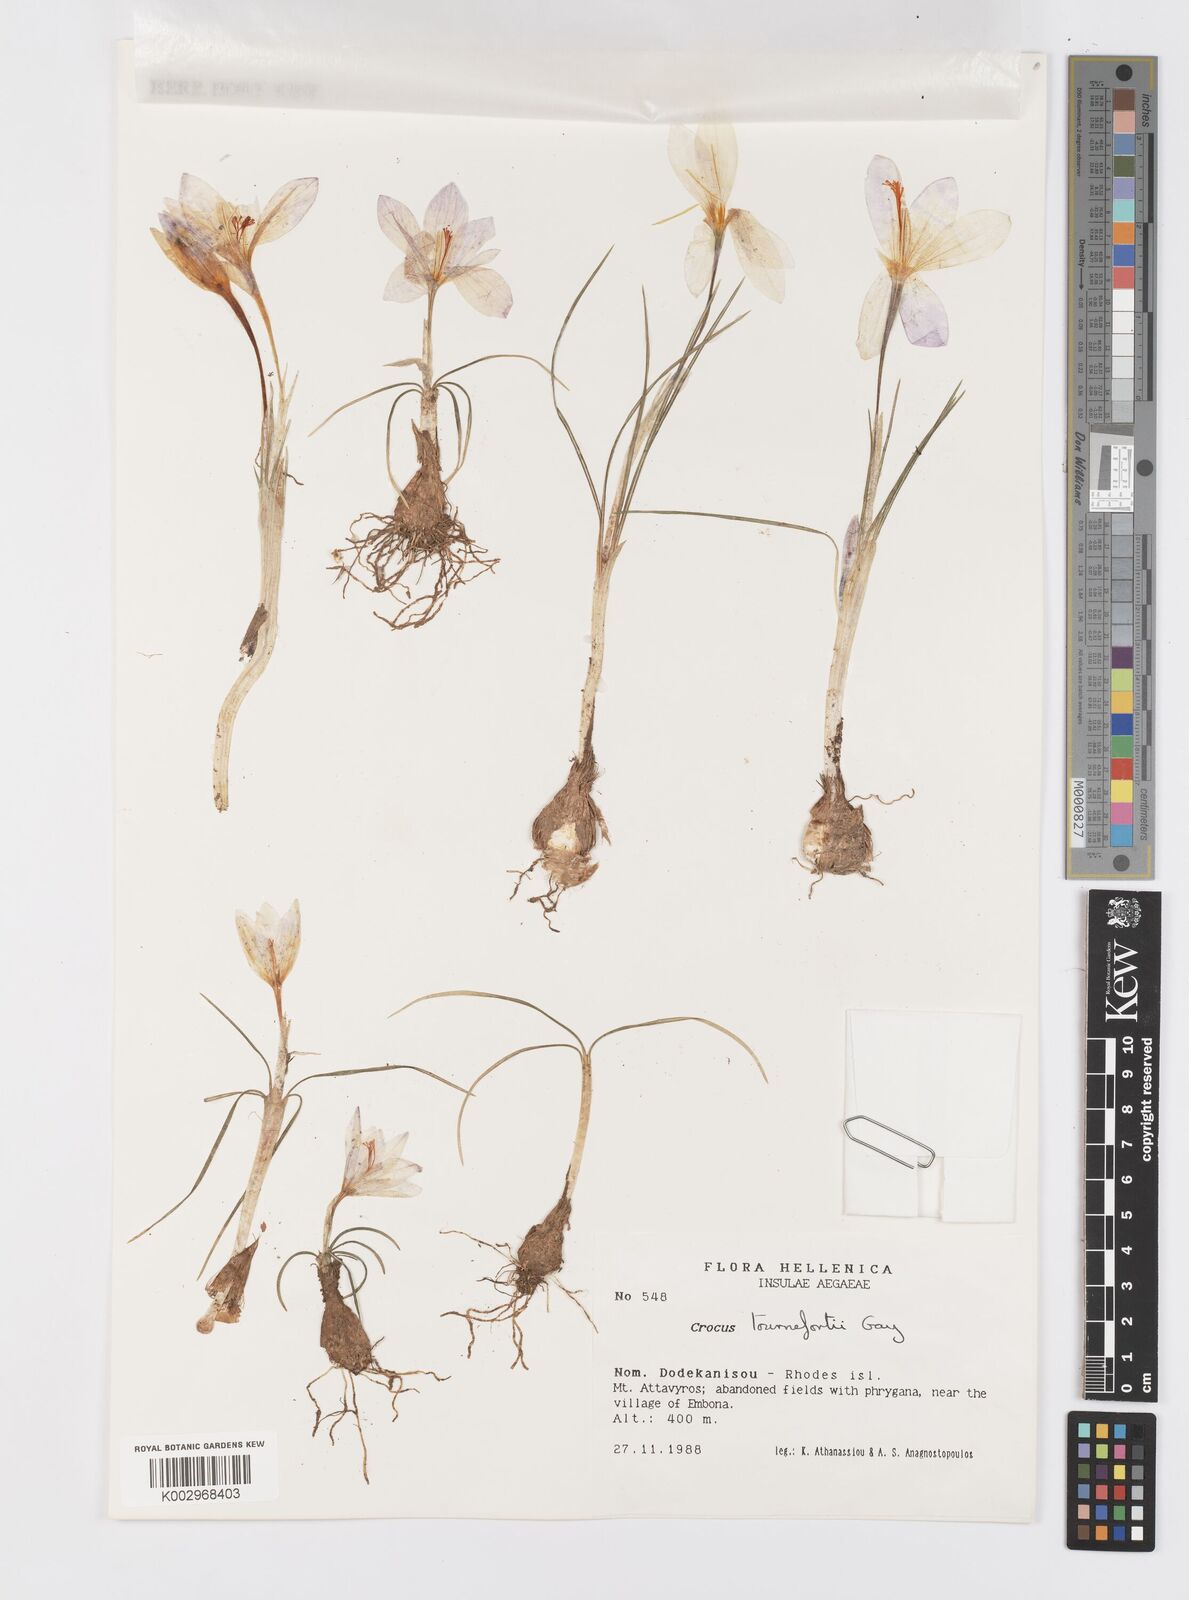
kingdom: Plantae
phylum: Tracheophyta
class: Liliopsida
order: Asparagales
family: Iridaceae
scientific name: Iridaceae
